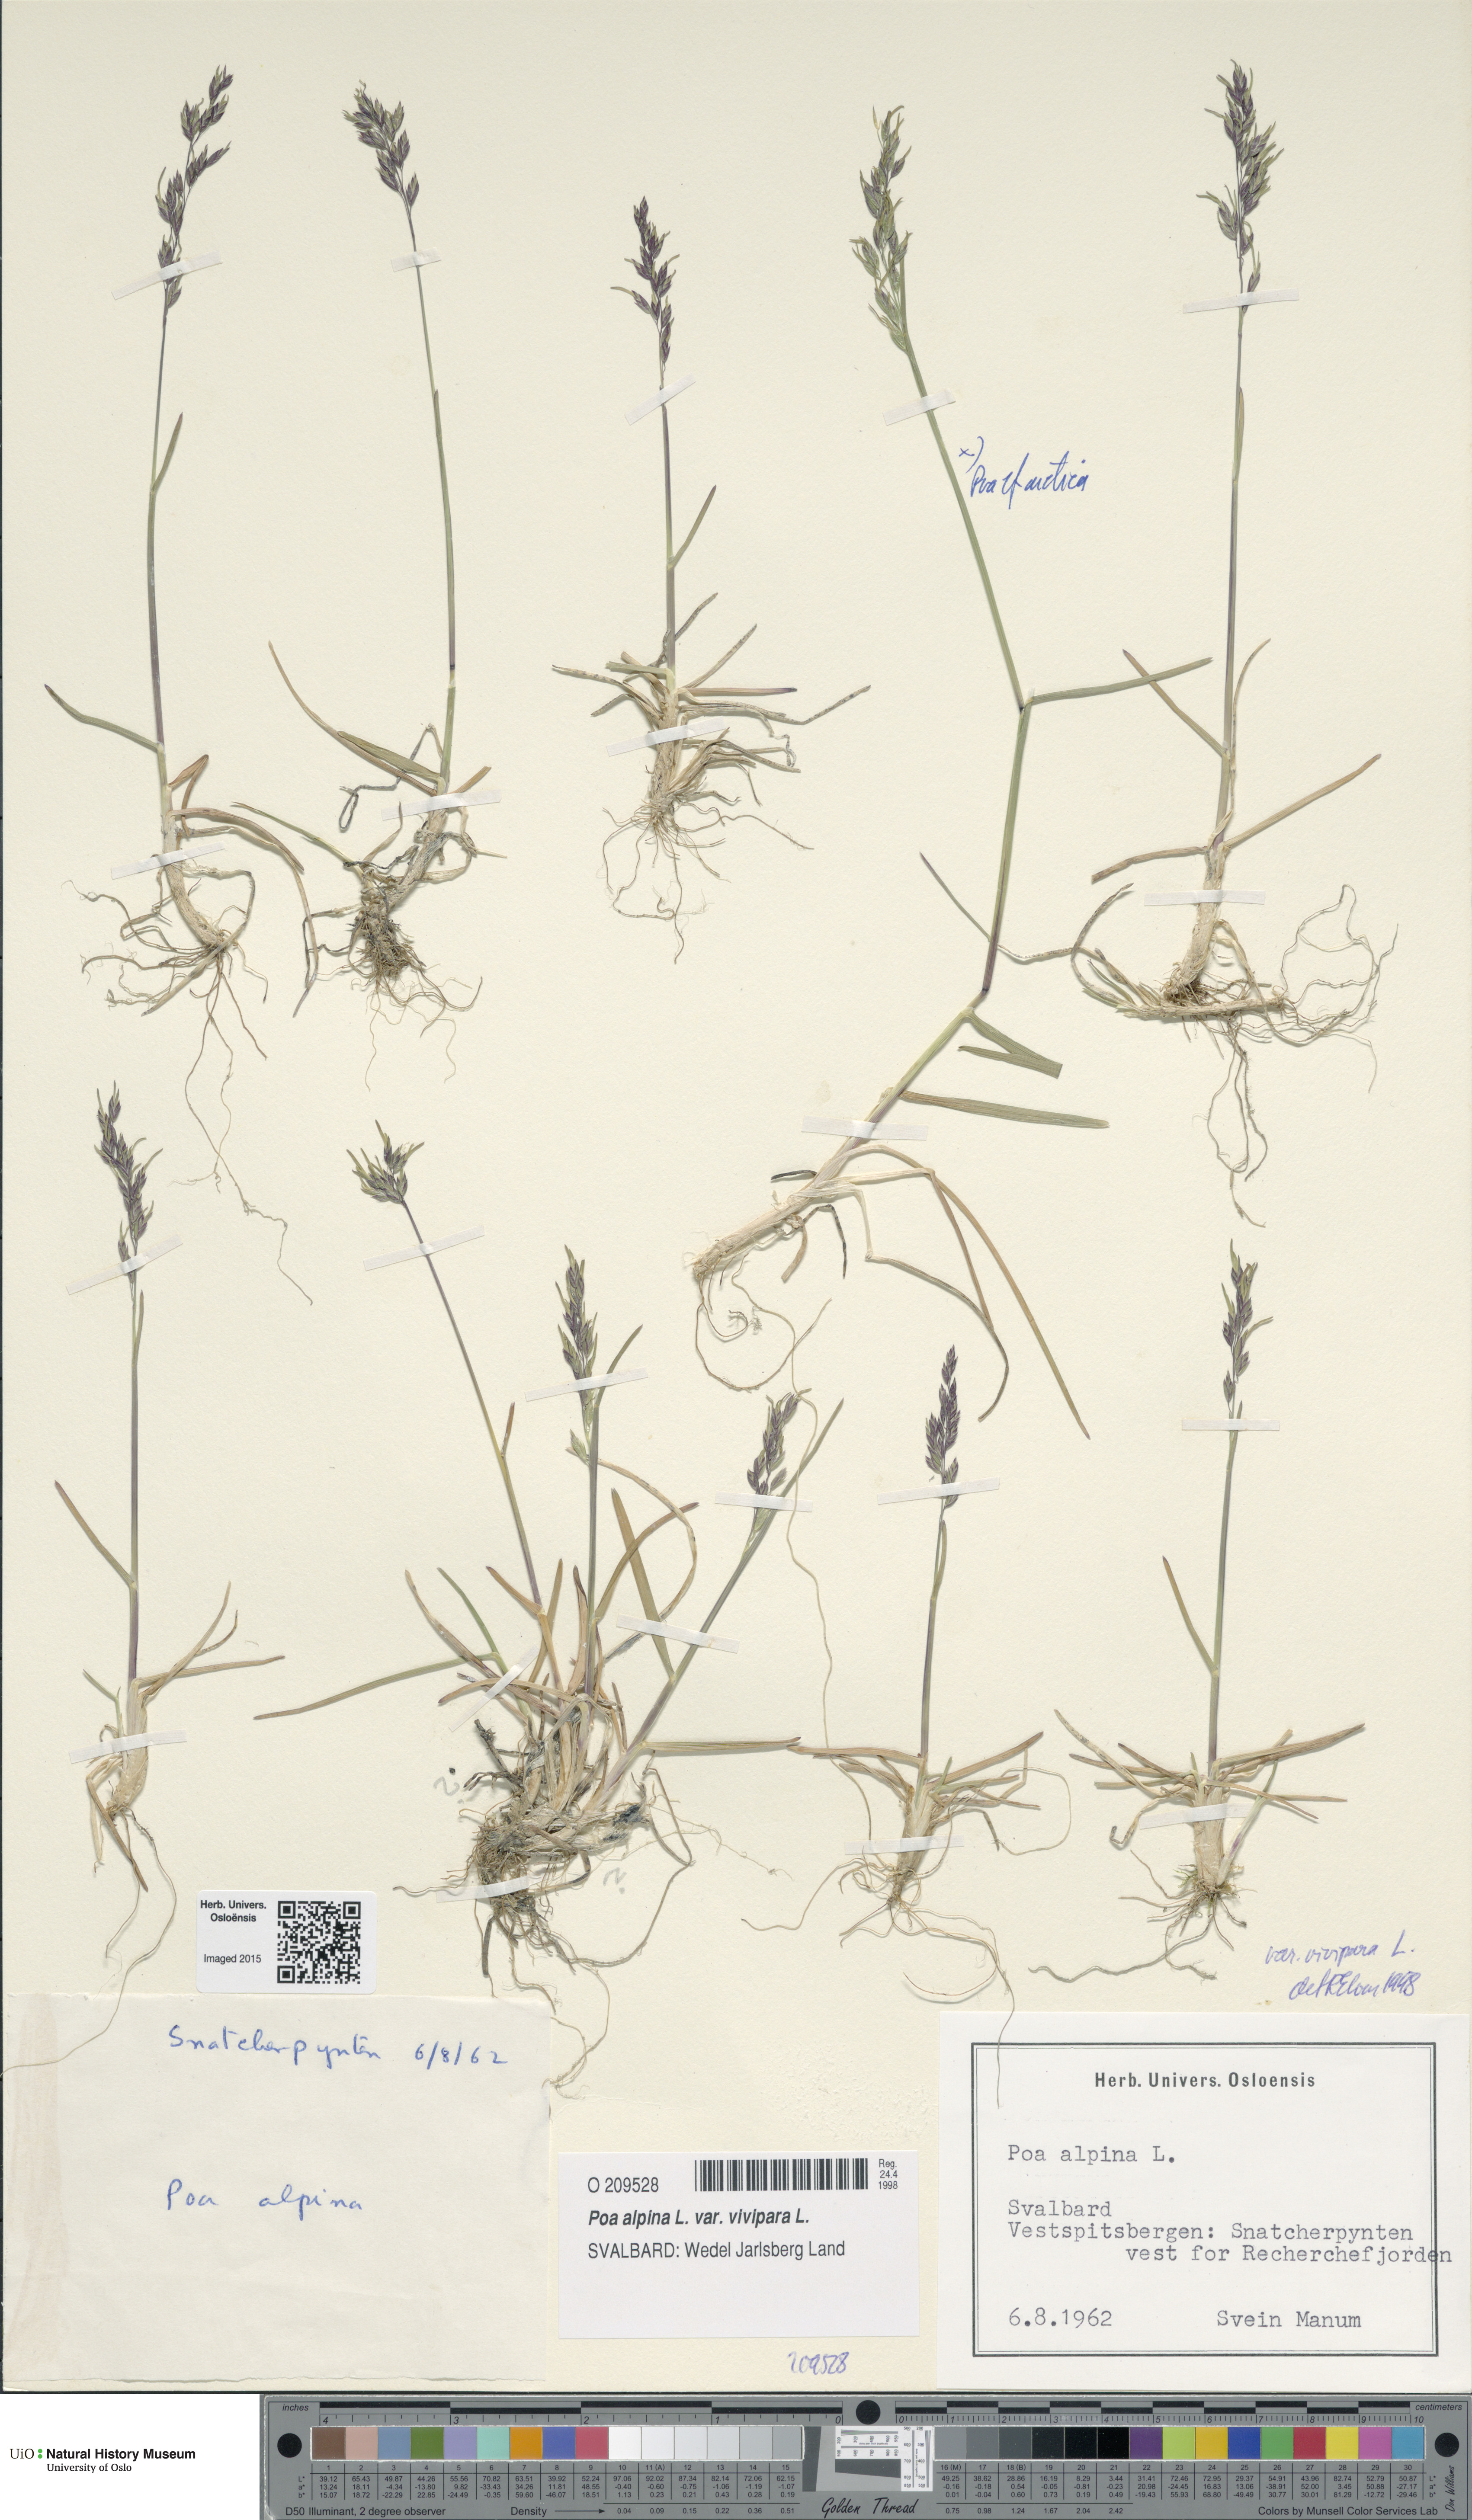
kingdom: Plantae
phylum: Tracheophyta
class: Liliopsida
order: Poales
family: Poaceae
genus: Poa
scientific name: Poa alpina
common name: Alpine bluegrass
